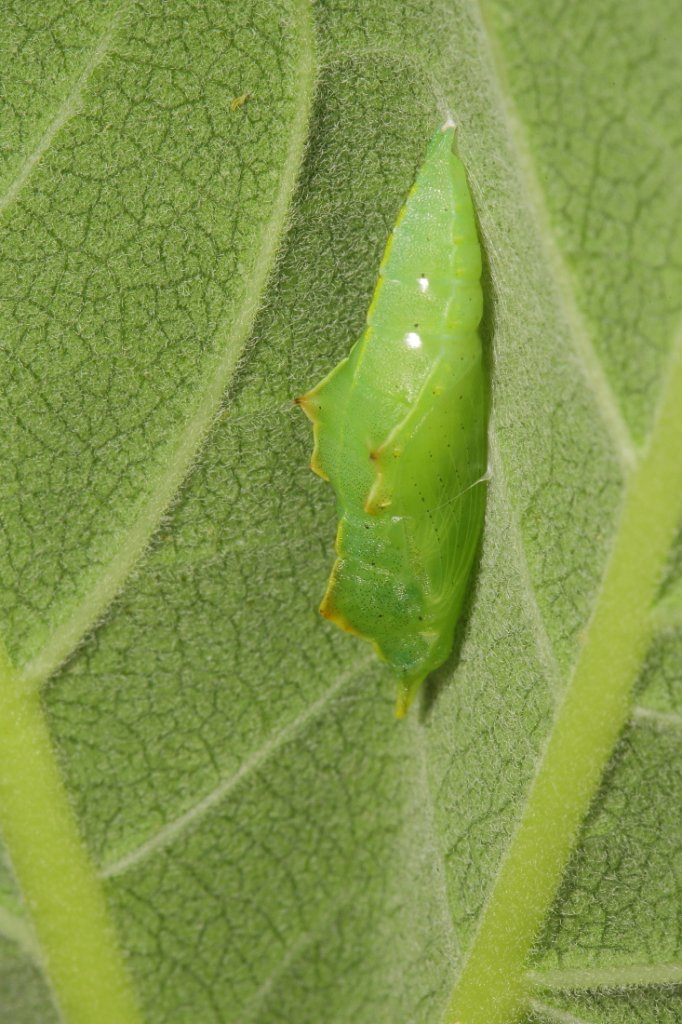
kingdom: Animalia
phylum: Arthropoda
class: Insecta
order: Lepidoptera
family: Pieridae
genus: Pieris
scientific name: Pieris rapae
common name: Cabbage White
